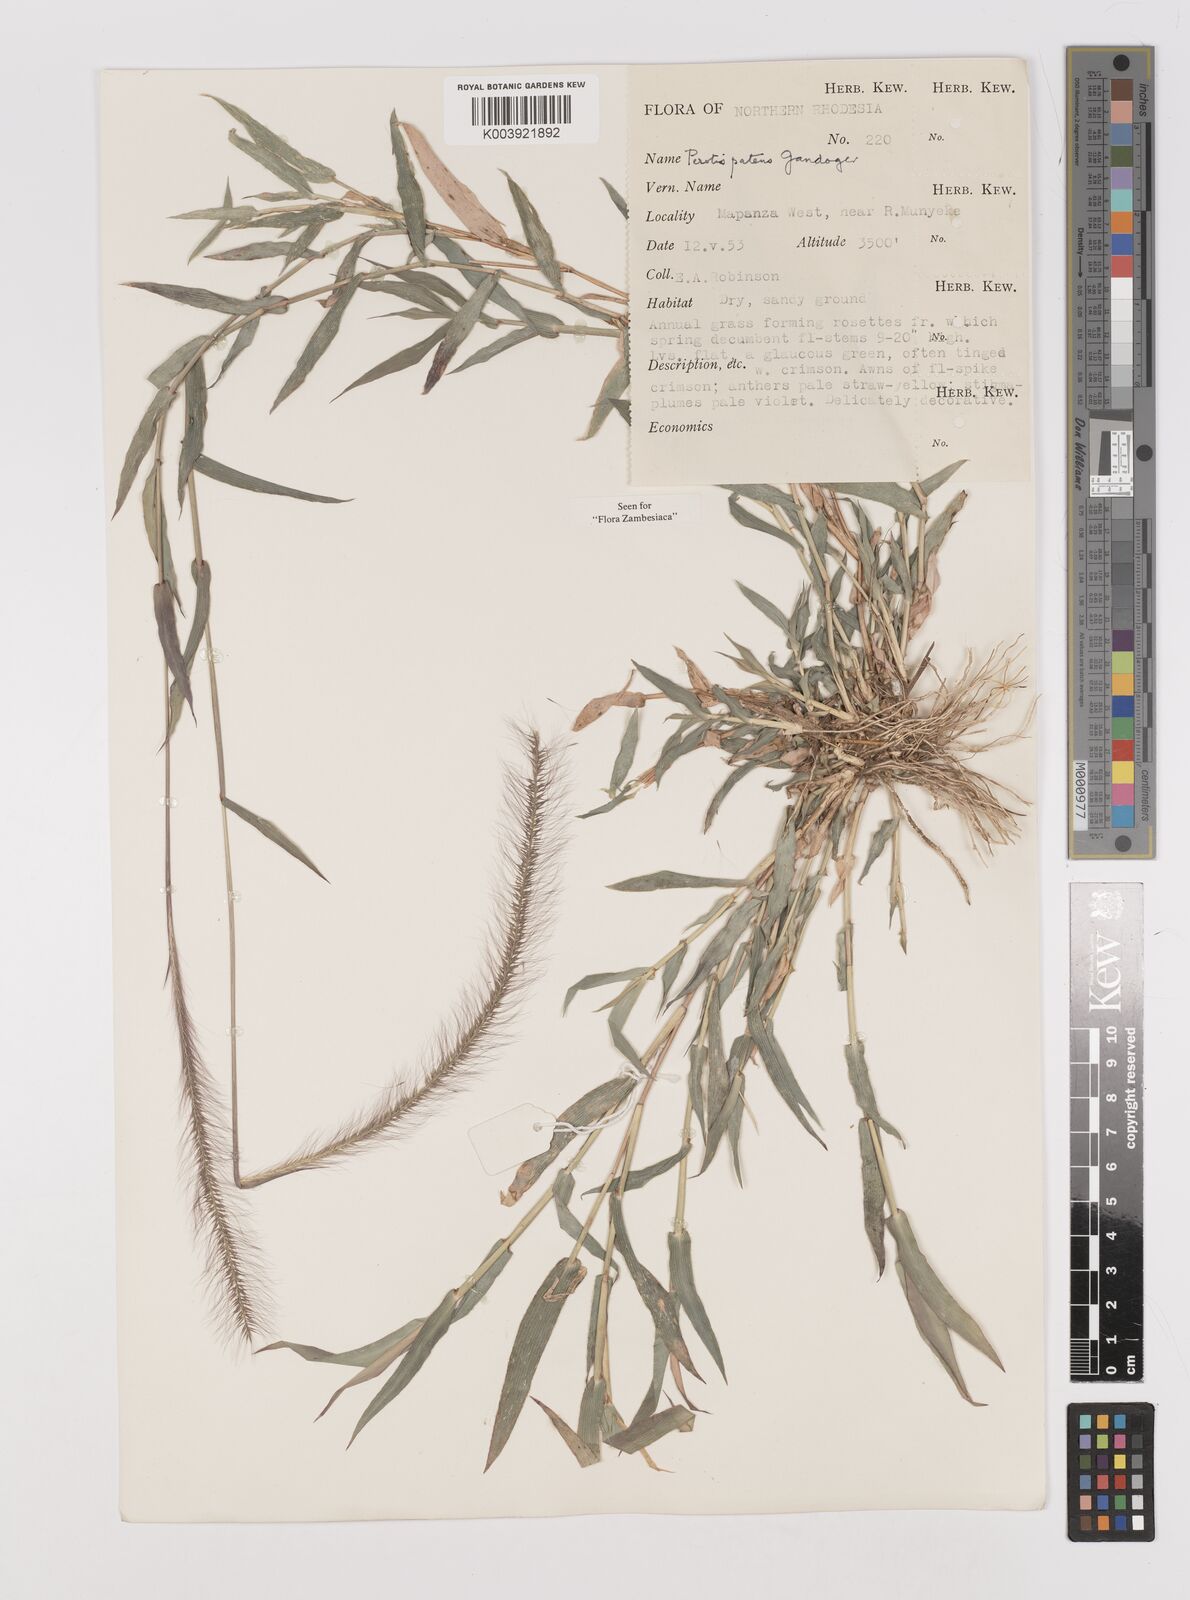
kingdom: Plantae
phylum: Tracheophyta
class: Liliopsida
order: Poales
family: Poaceae
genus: Perotis
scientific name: Perotis patens
